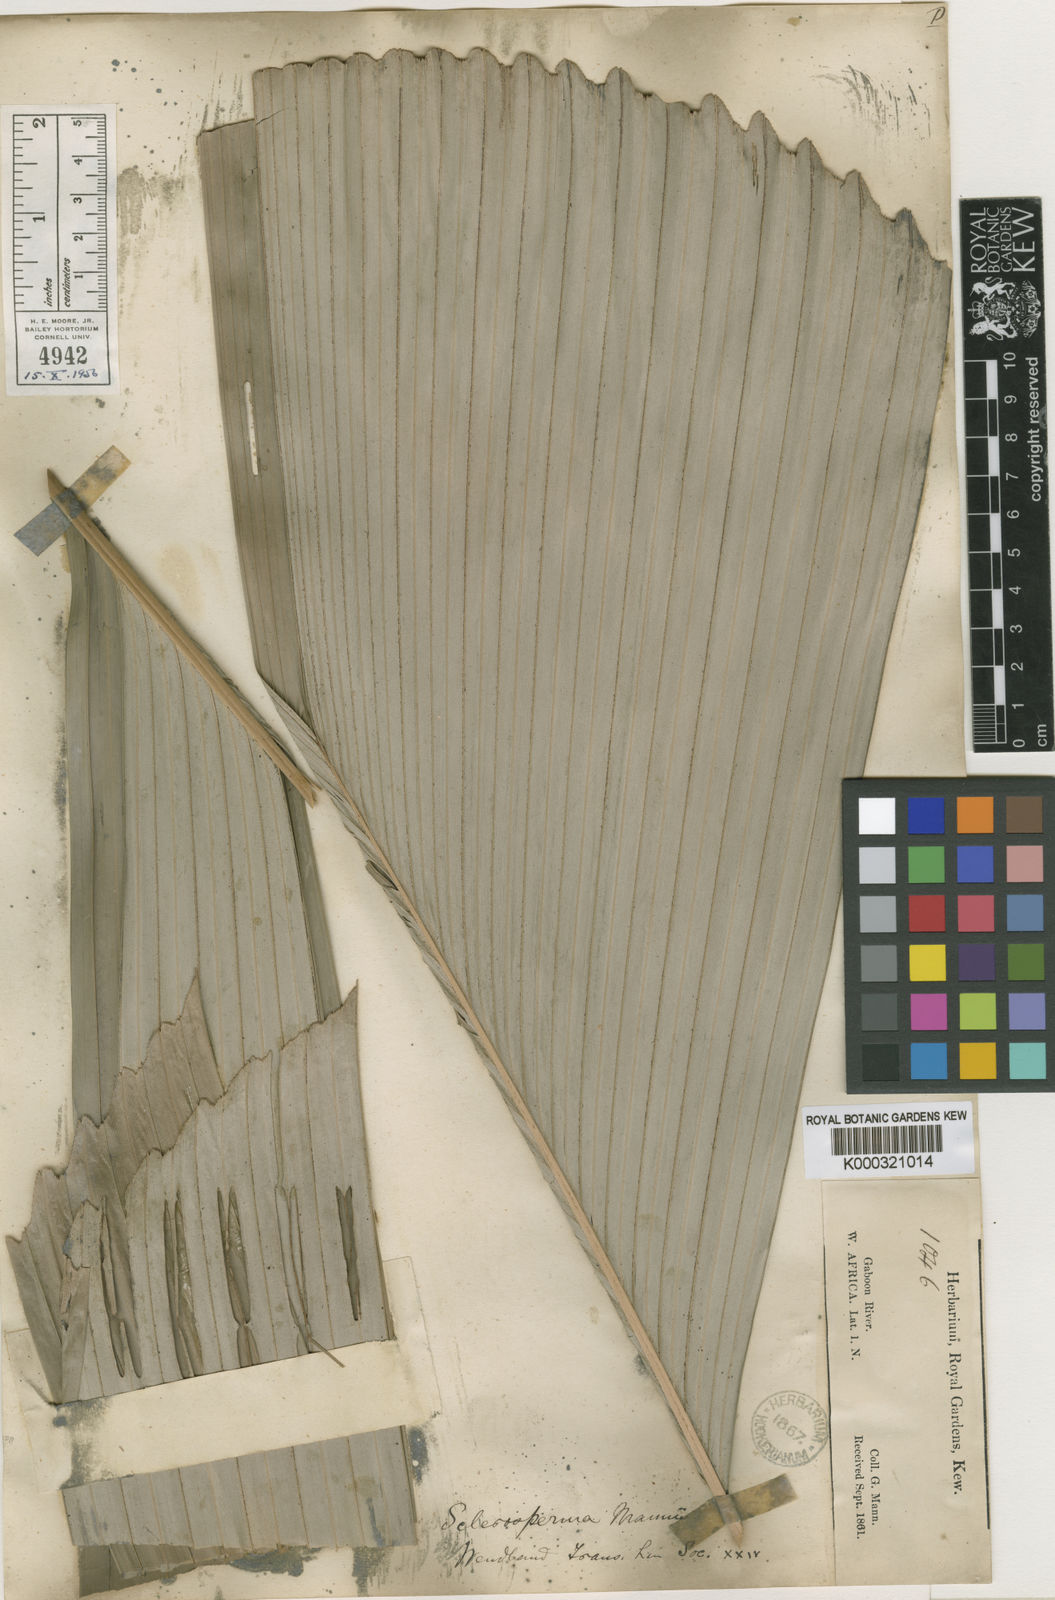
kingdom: Plantae
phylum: Tracheophyta
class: Liliopsida
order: Arecales
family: Arecaceae
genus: Sclerosperma
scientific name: Sclerosperma mannii
